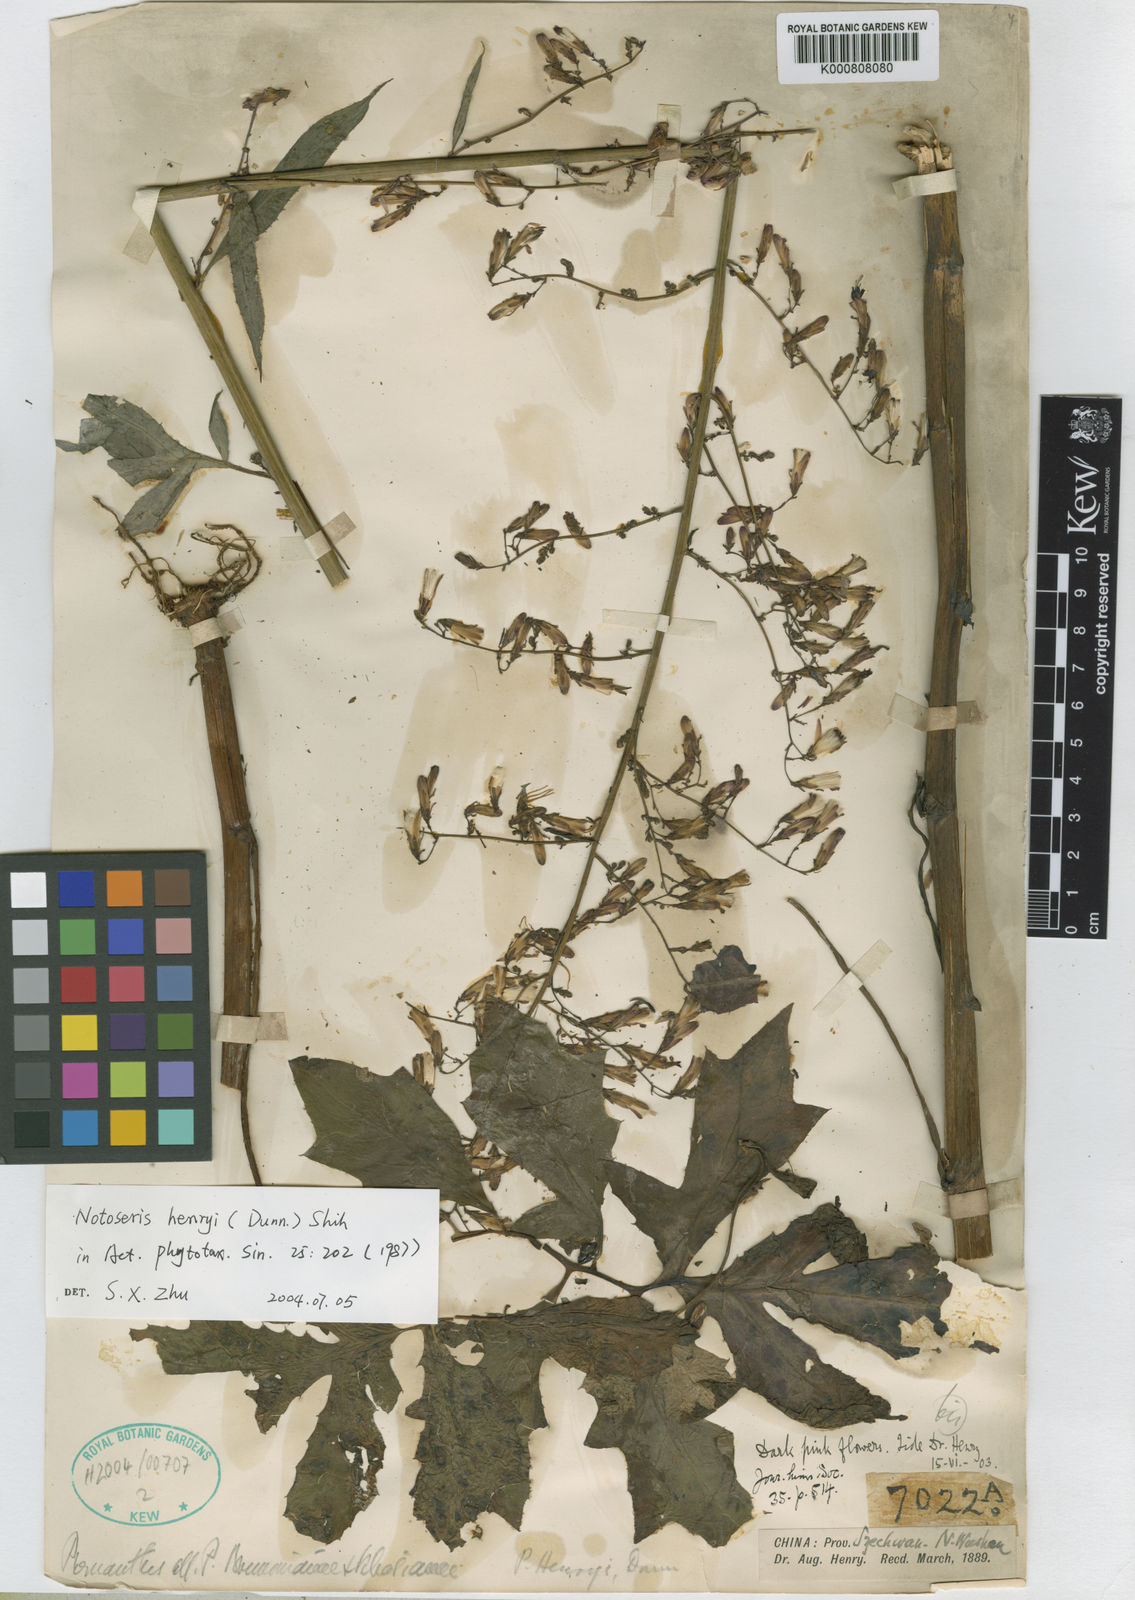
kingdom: Plantae
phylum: Tracheophyta
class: Magnoliopsida
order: Asterales
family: Asteraceae
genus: Notoseris
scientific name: Notoseris henryi
